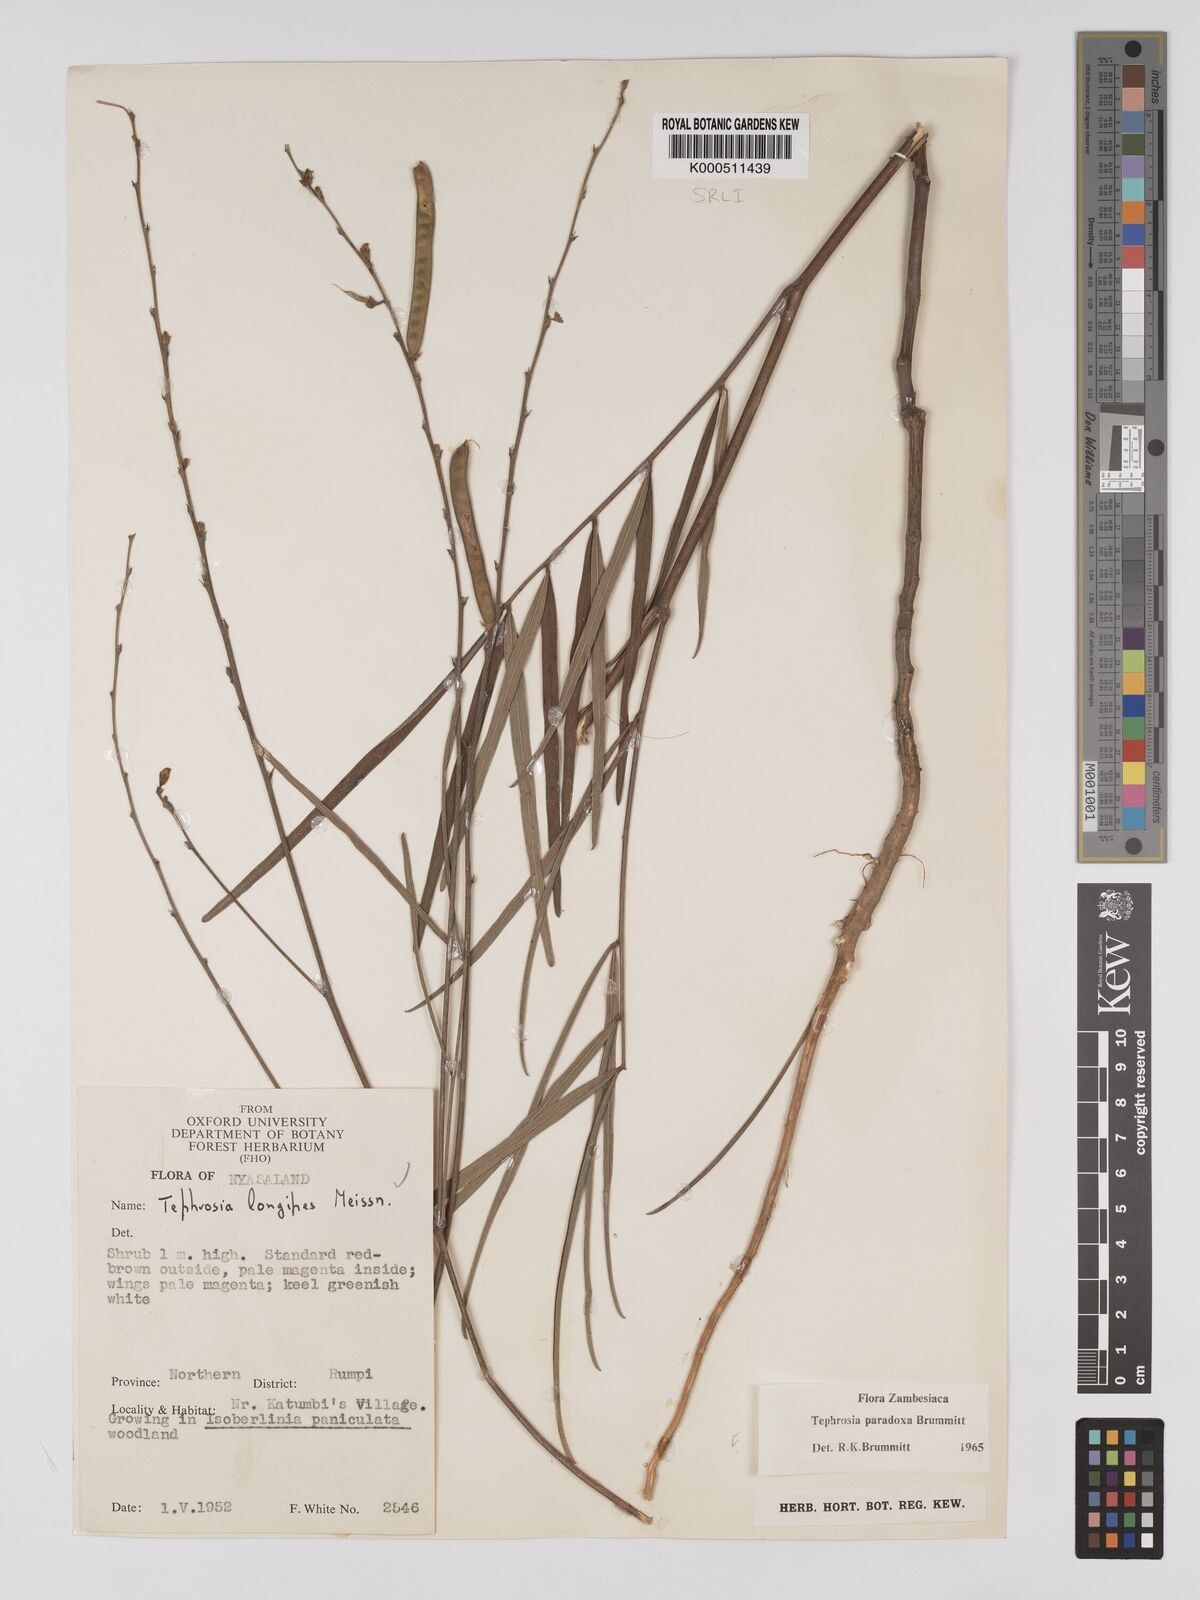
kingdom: Plantae
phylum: Tracheophyta
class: Magnoliopsida
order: Fabales
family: Fabaceae
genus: Tephrosia
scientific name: Tephrosia paradoxa
